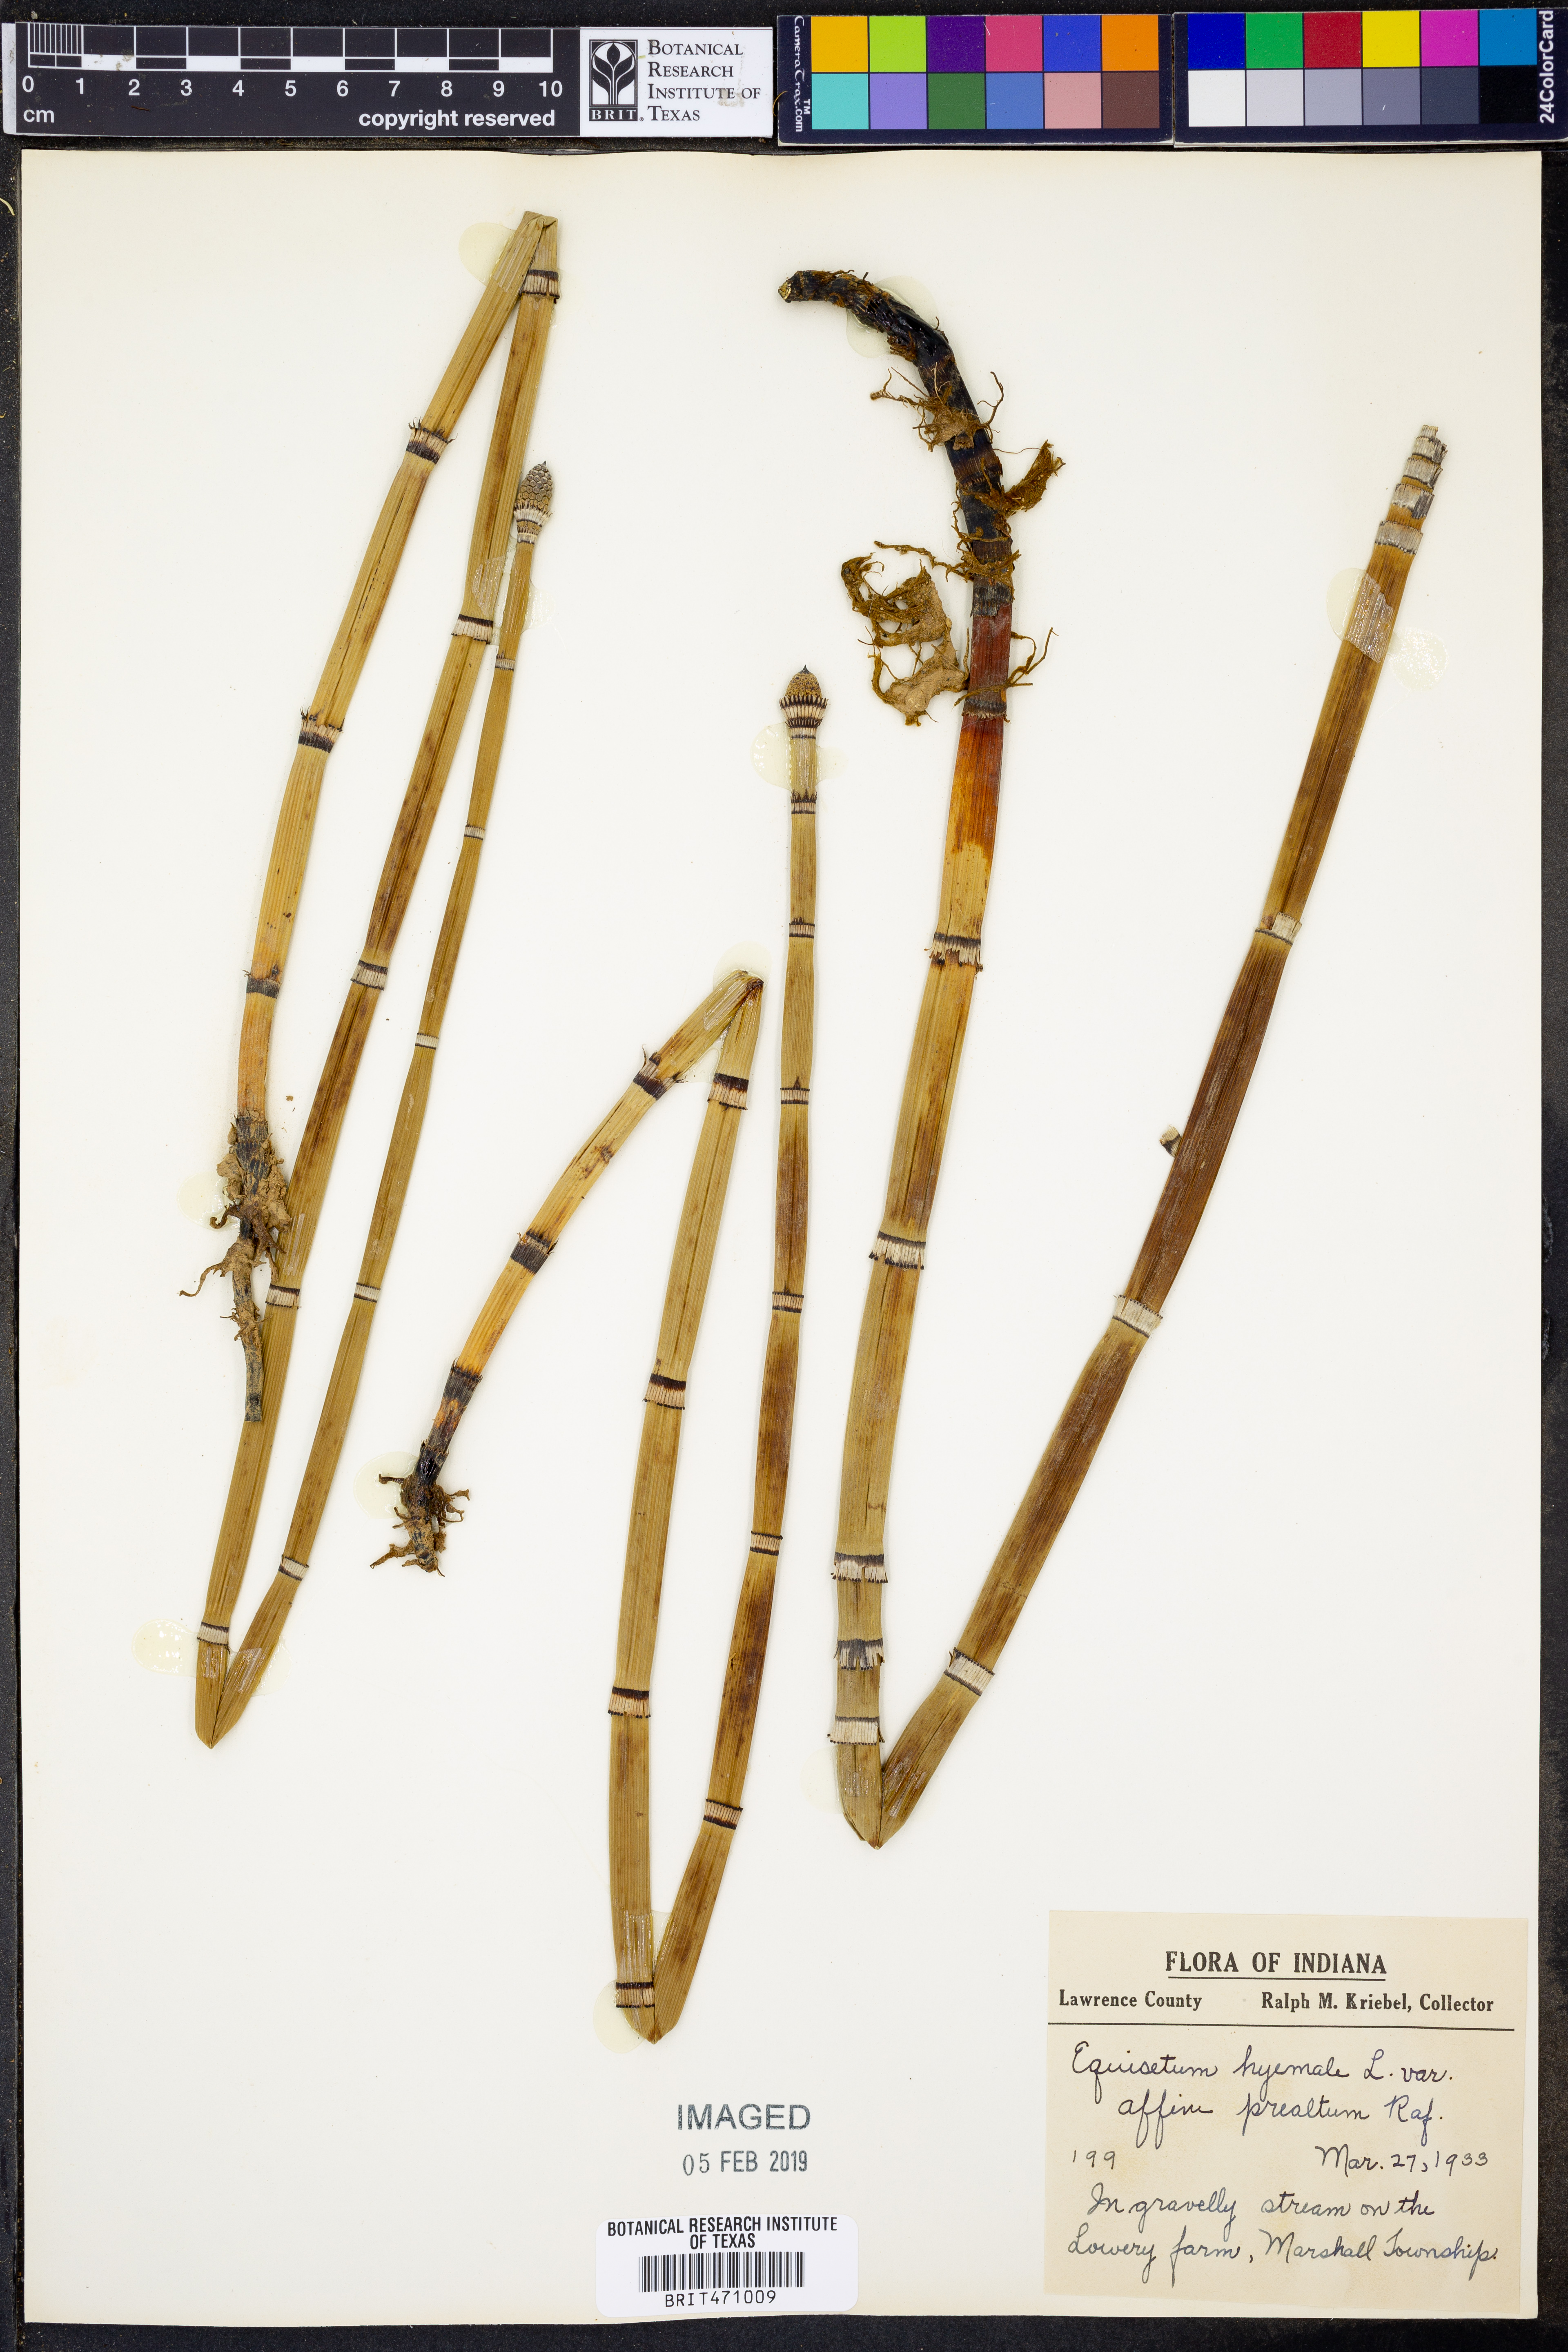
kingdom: Plantae
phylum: Tracheophyta
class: Polypodiopsida
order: Equisetales
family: Equisetaceae
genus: Equisetum
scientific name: Equisetum praealtum
